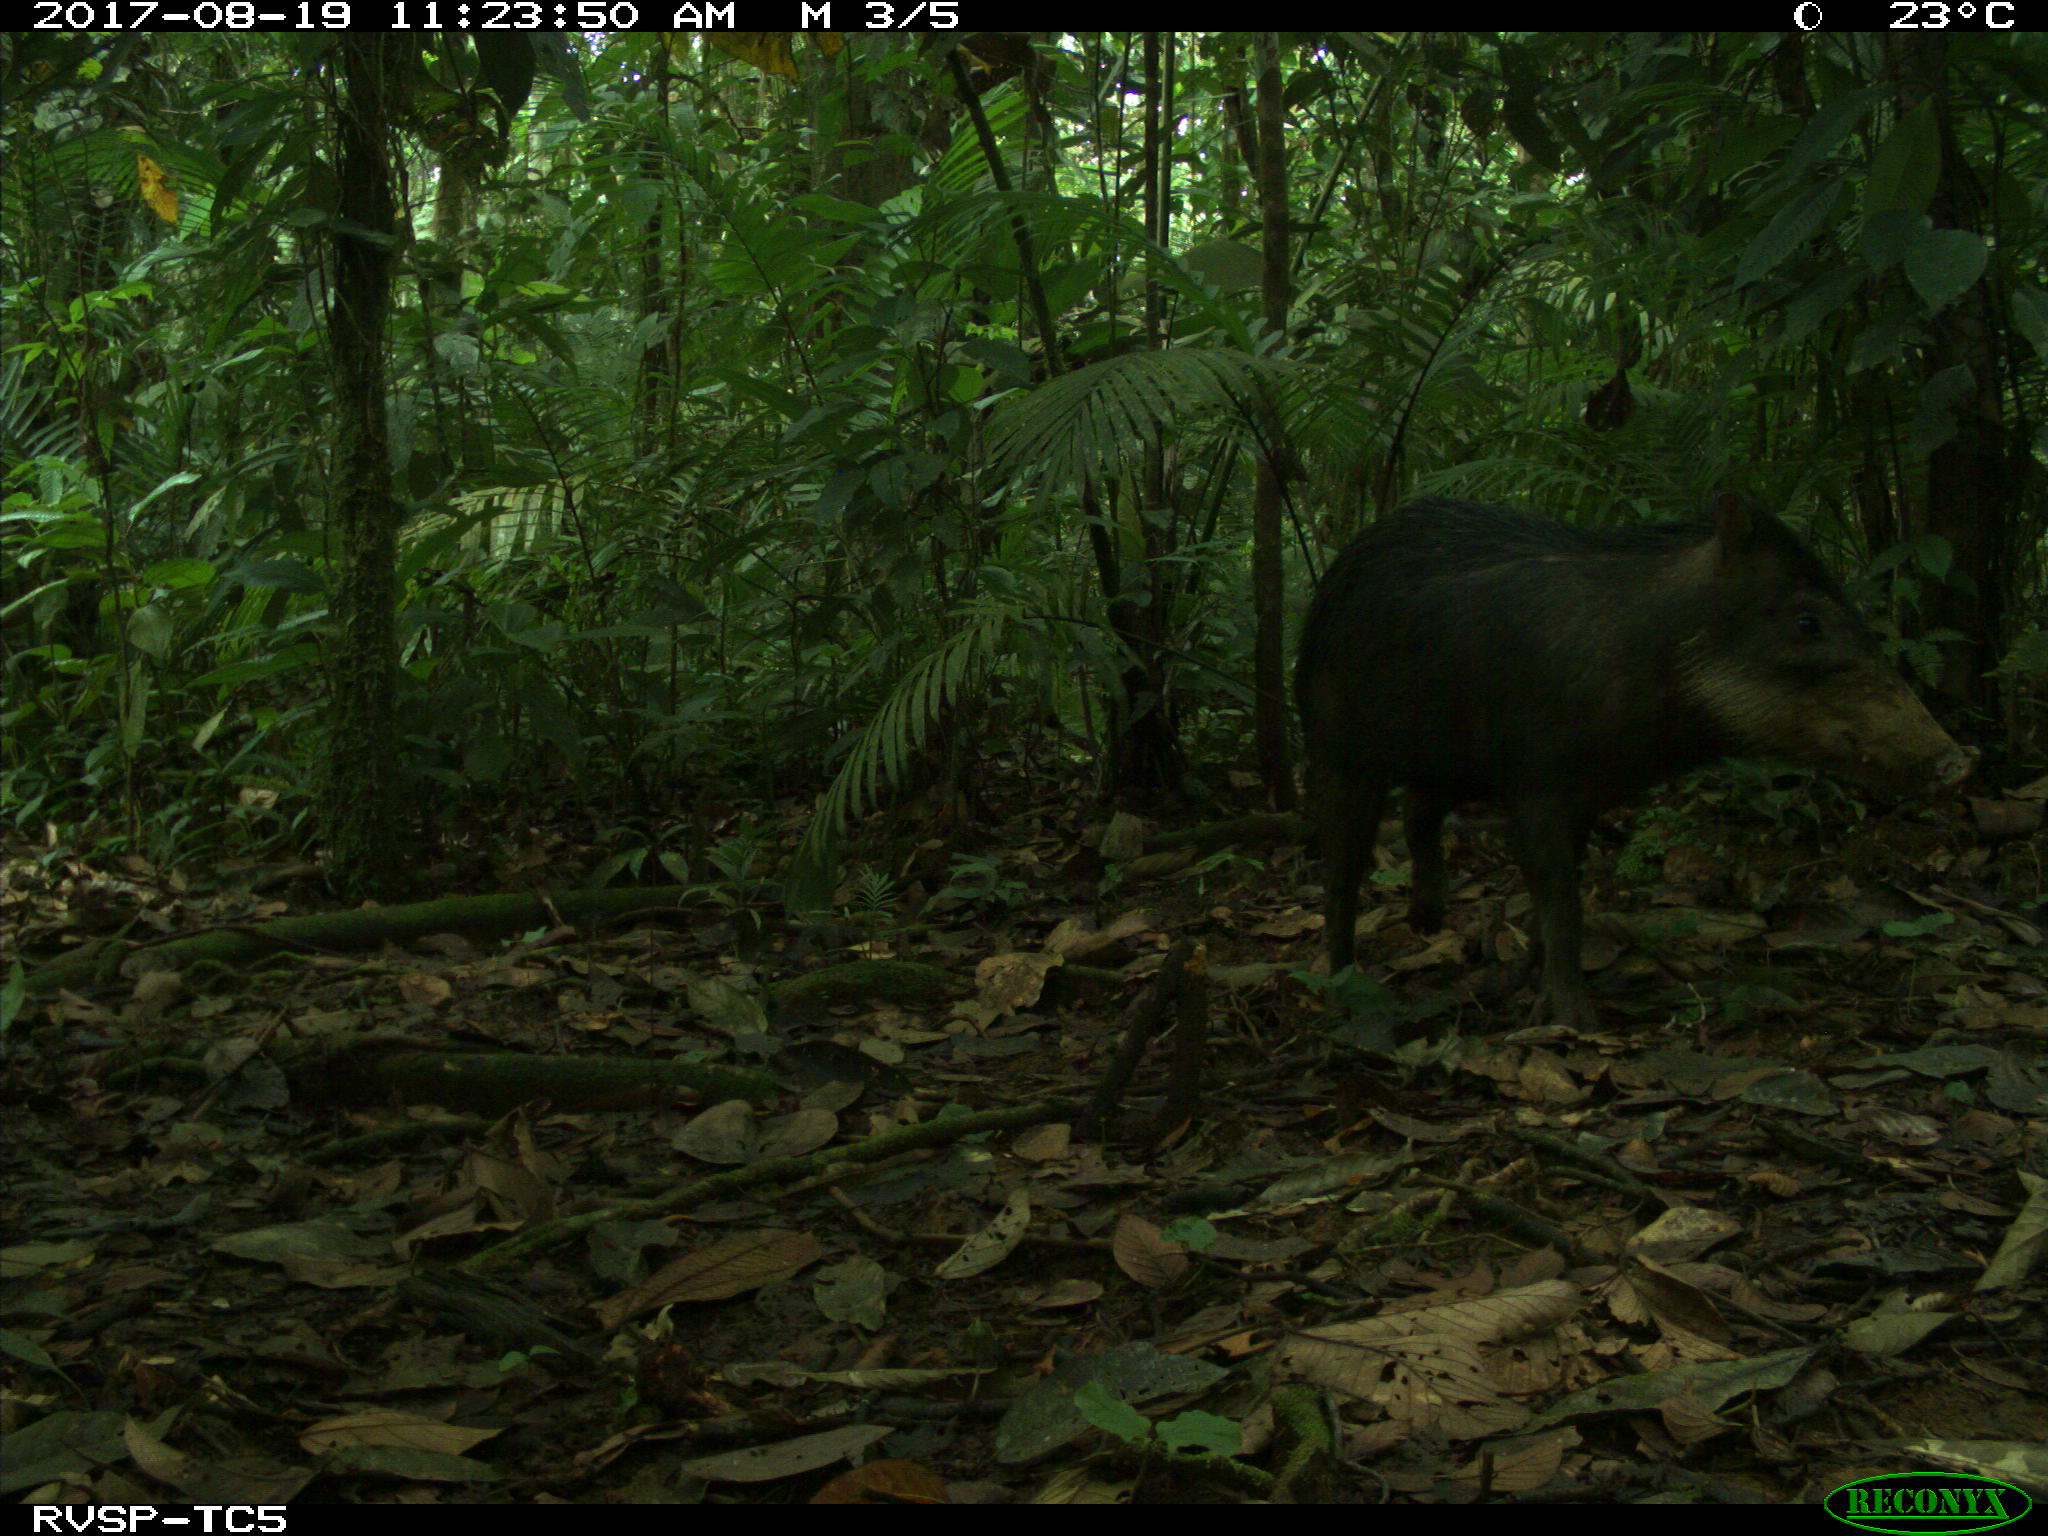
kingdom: Animalia
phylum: Chordata
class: Mammalia
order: Artiodactyla
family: Tayassuidae
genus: Tayassu
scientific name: Tayassu pecari
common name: White-lipped peccary
